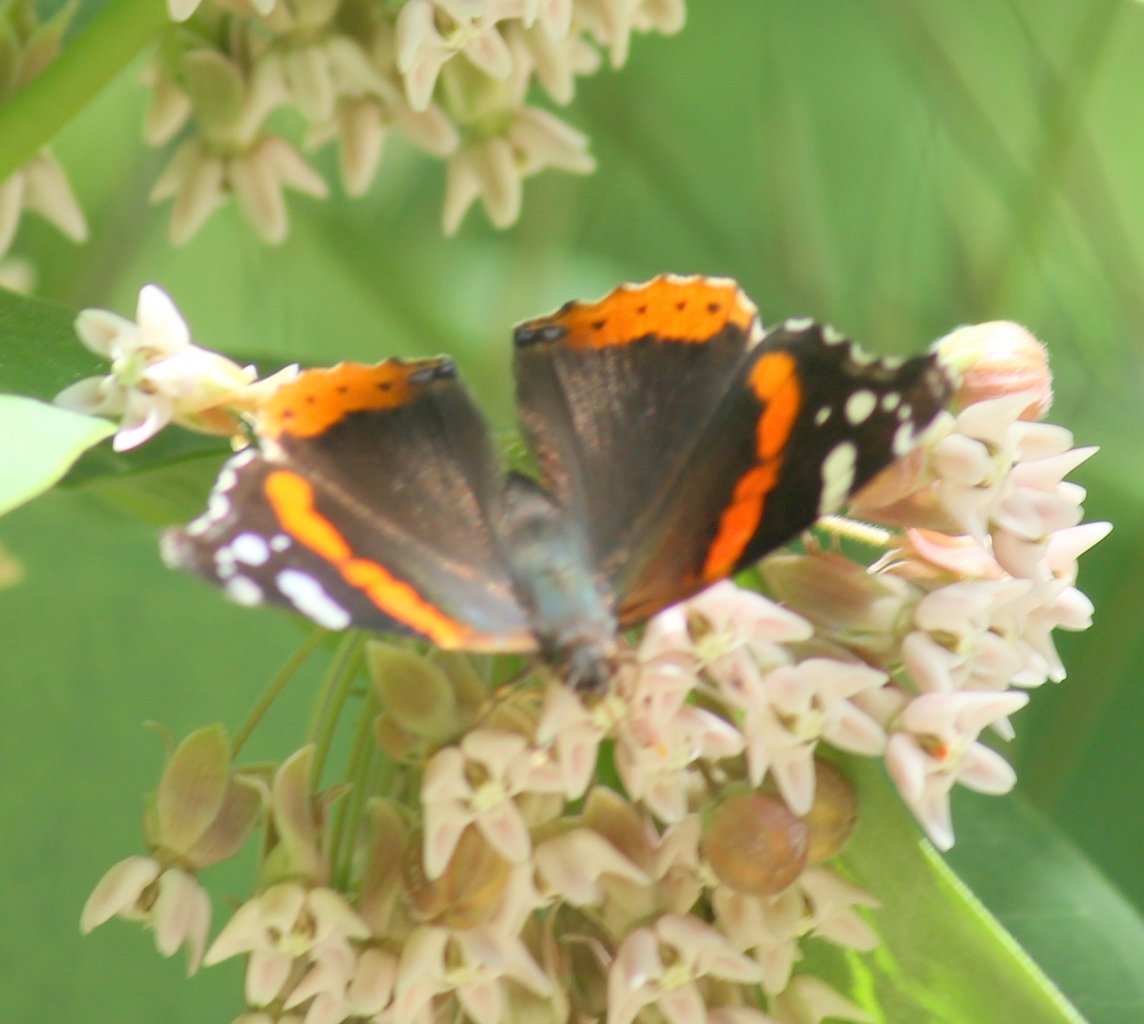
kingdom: Animalia
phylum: Arthropoda
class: Insecta
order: Lepidoptera
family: Nymphalidae
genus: Vanessa
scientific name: Vanessa atalanta
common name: Red Admiral
